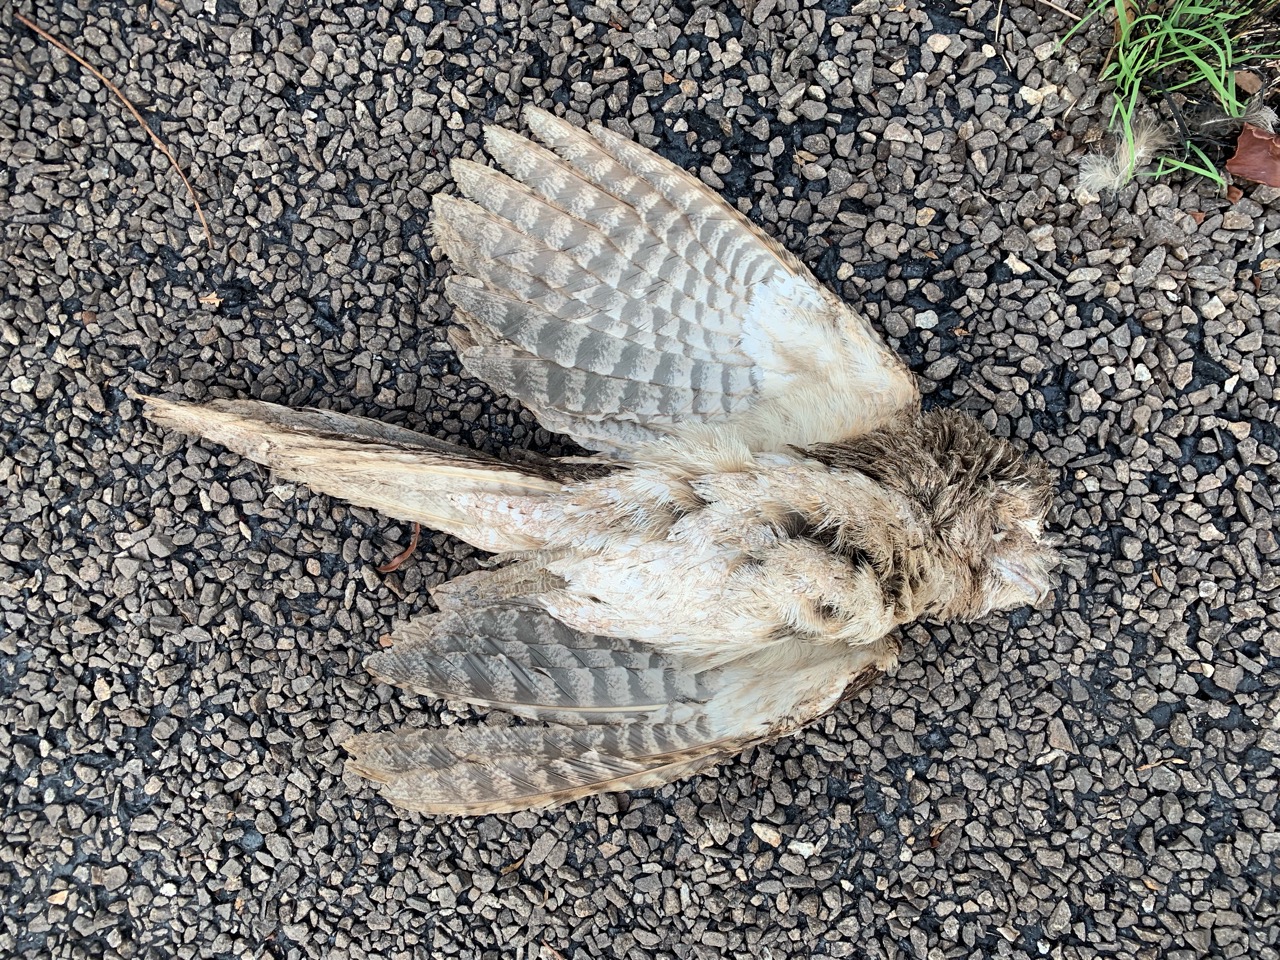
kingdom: Animalia
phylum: Chordata
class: Aves
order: Caprimulgiformes
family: Podargidae
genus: Podargus
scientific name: Podargus papuensis
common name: Papuan frogmouth
